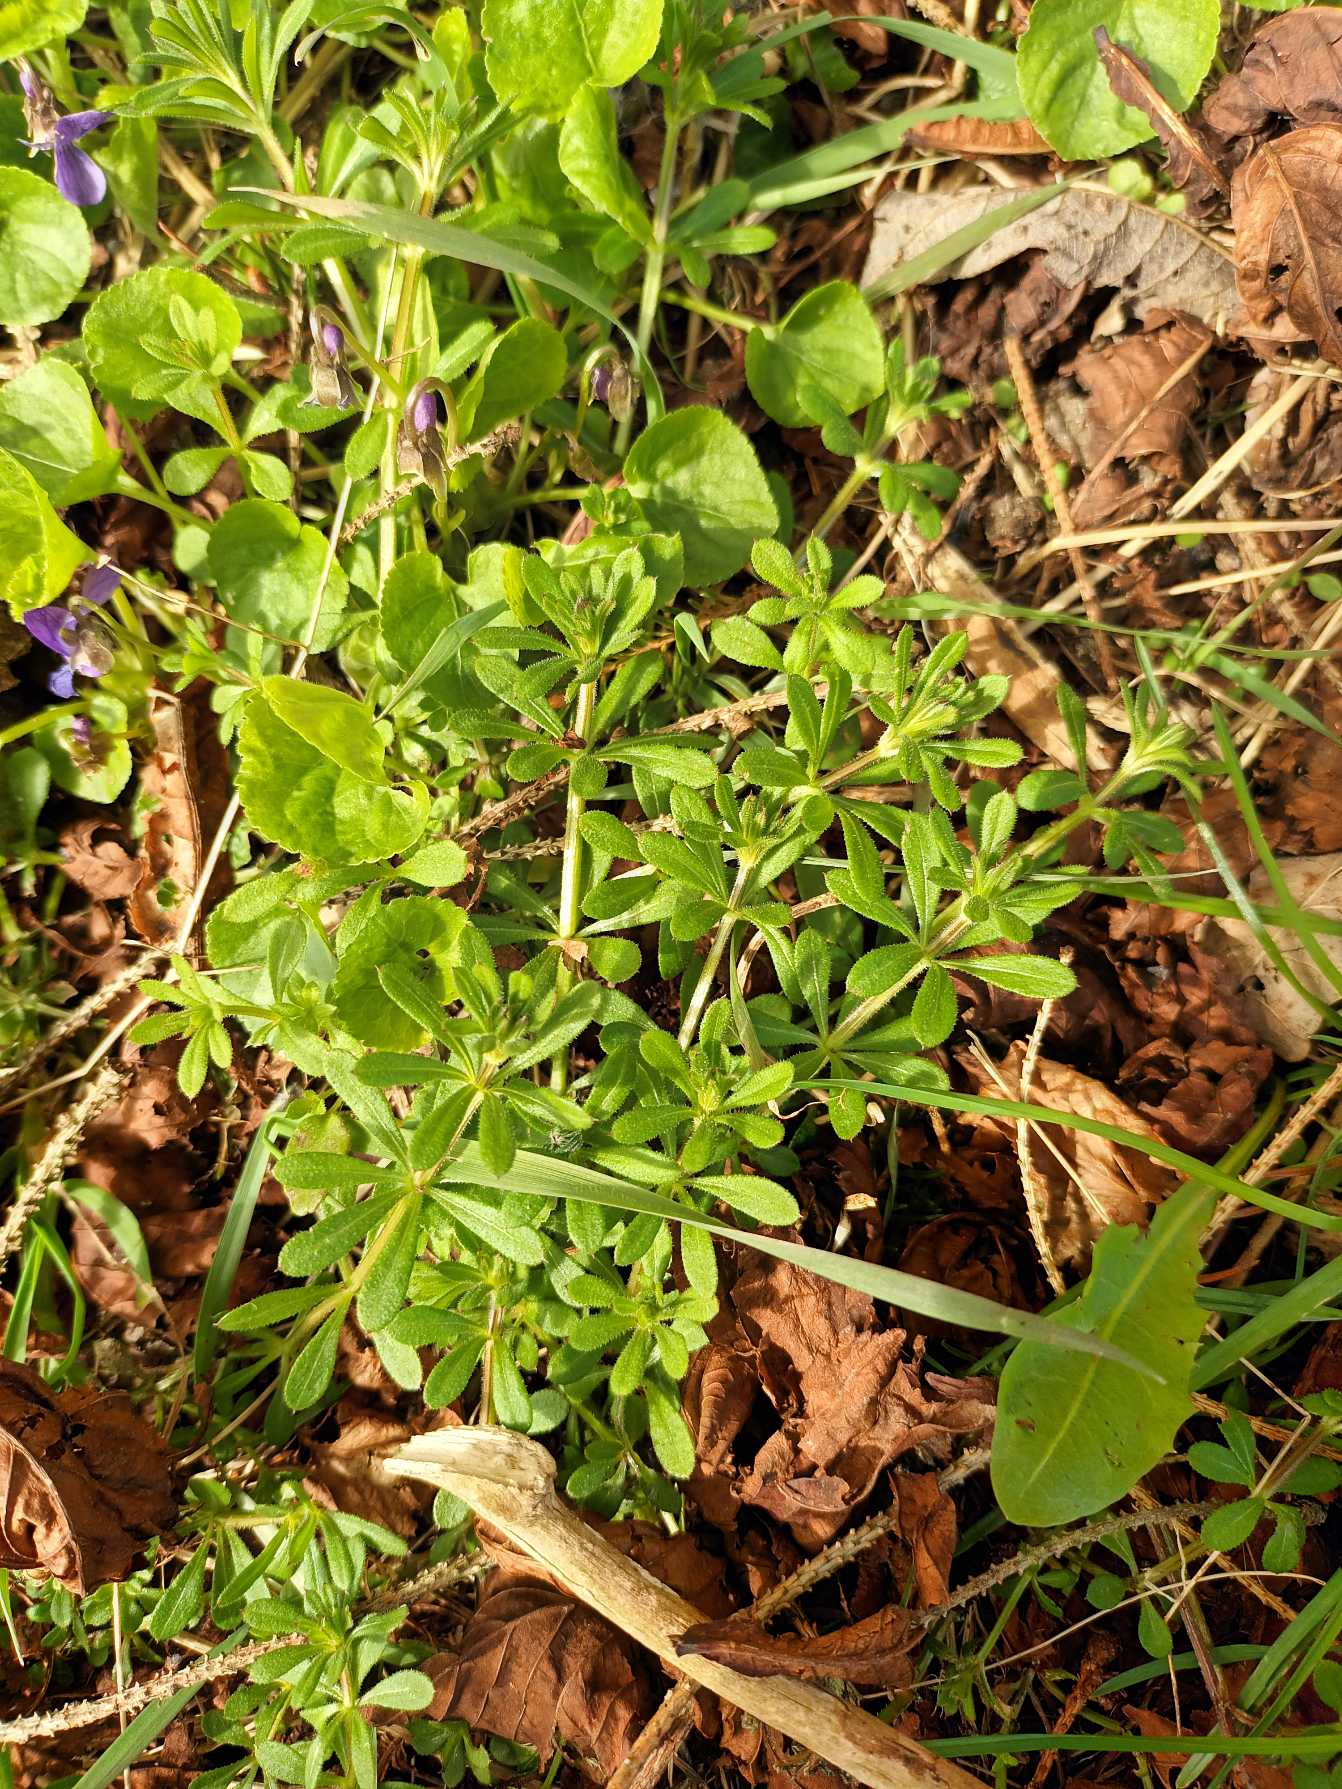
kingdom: Plantae
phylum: Tracheophyta
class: Magnoliopsida
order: Gentianales
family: Rubiaceae
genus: Galium
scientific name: Galium aparine
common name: Burre-snerre
